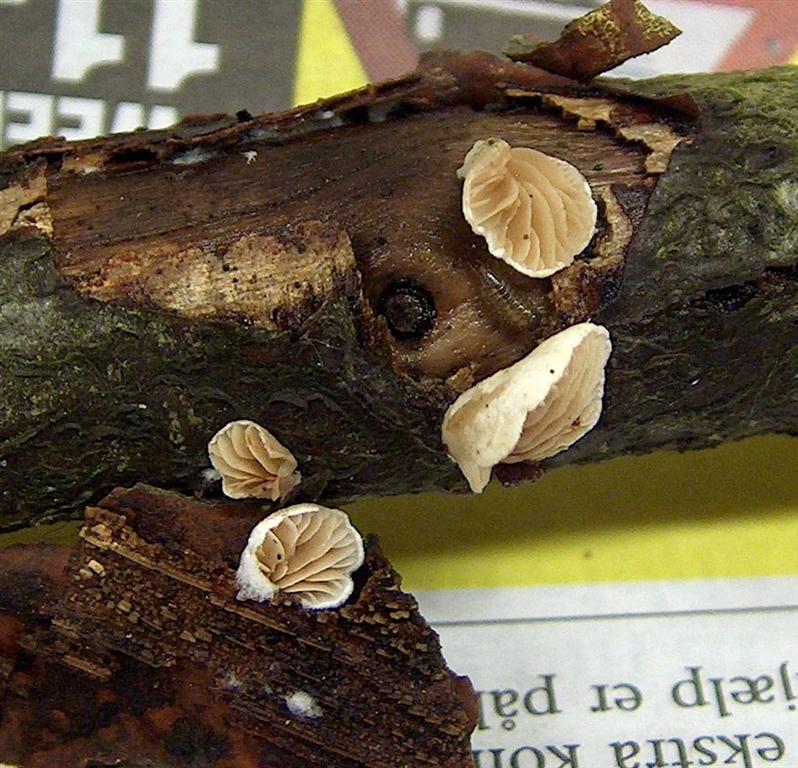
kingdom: Fungi
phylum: Basidiomycota
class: Agaricomycetes
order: Agaricales
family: Crepidotaceae
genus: Crepidotus
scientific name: Crepidotus cesatii
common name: almindelig muslingesvamp
